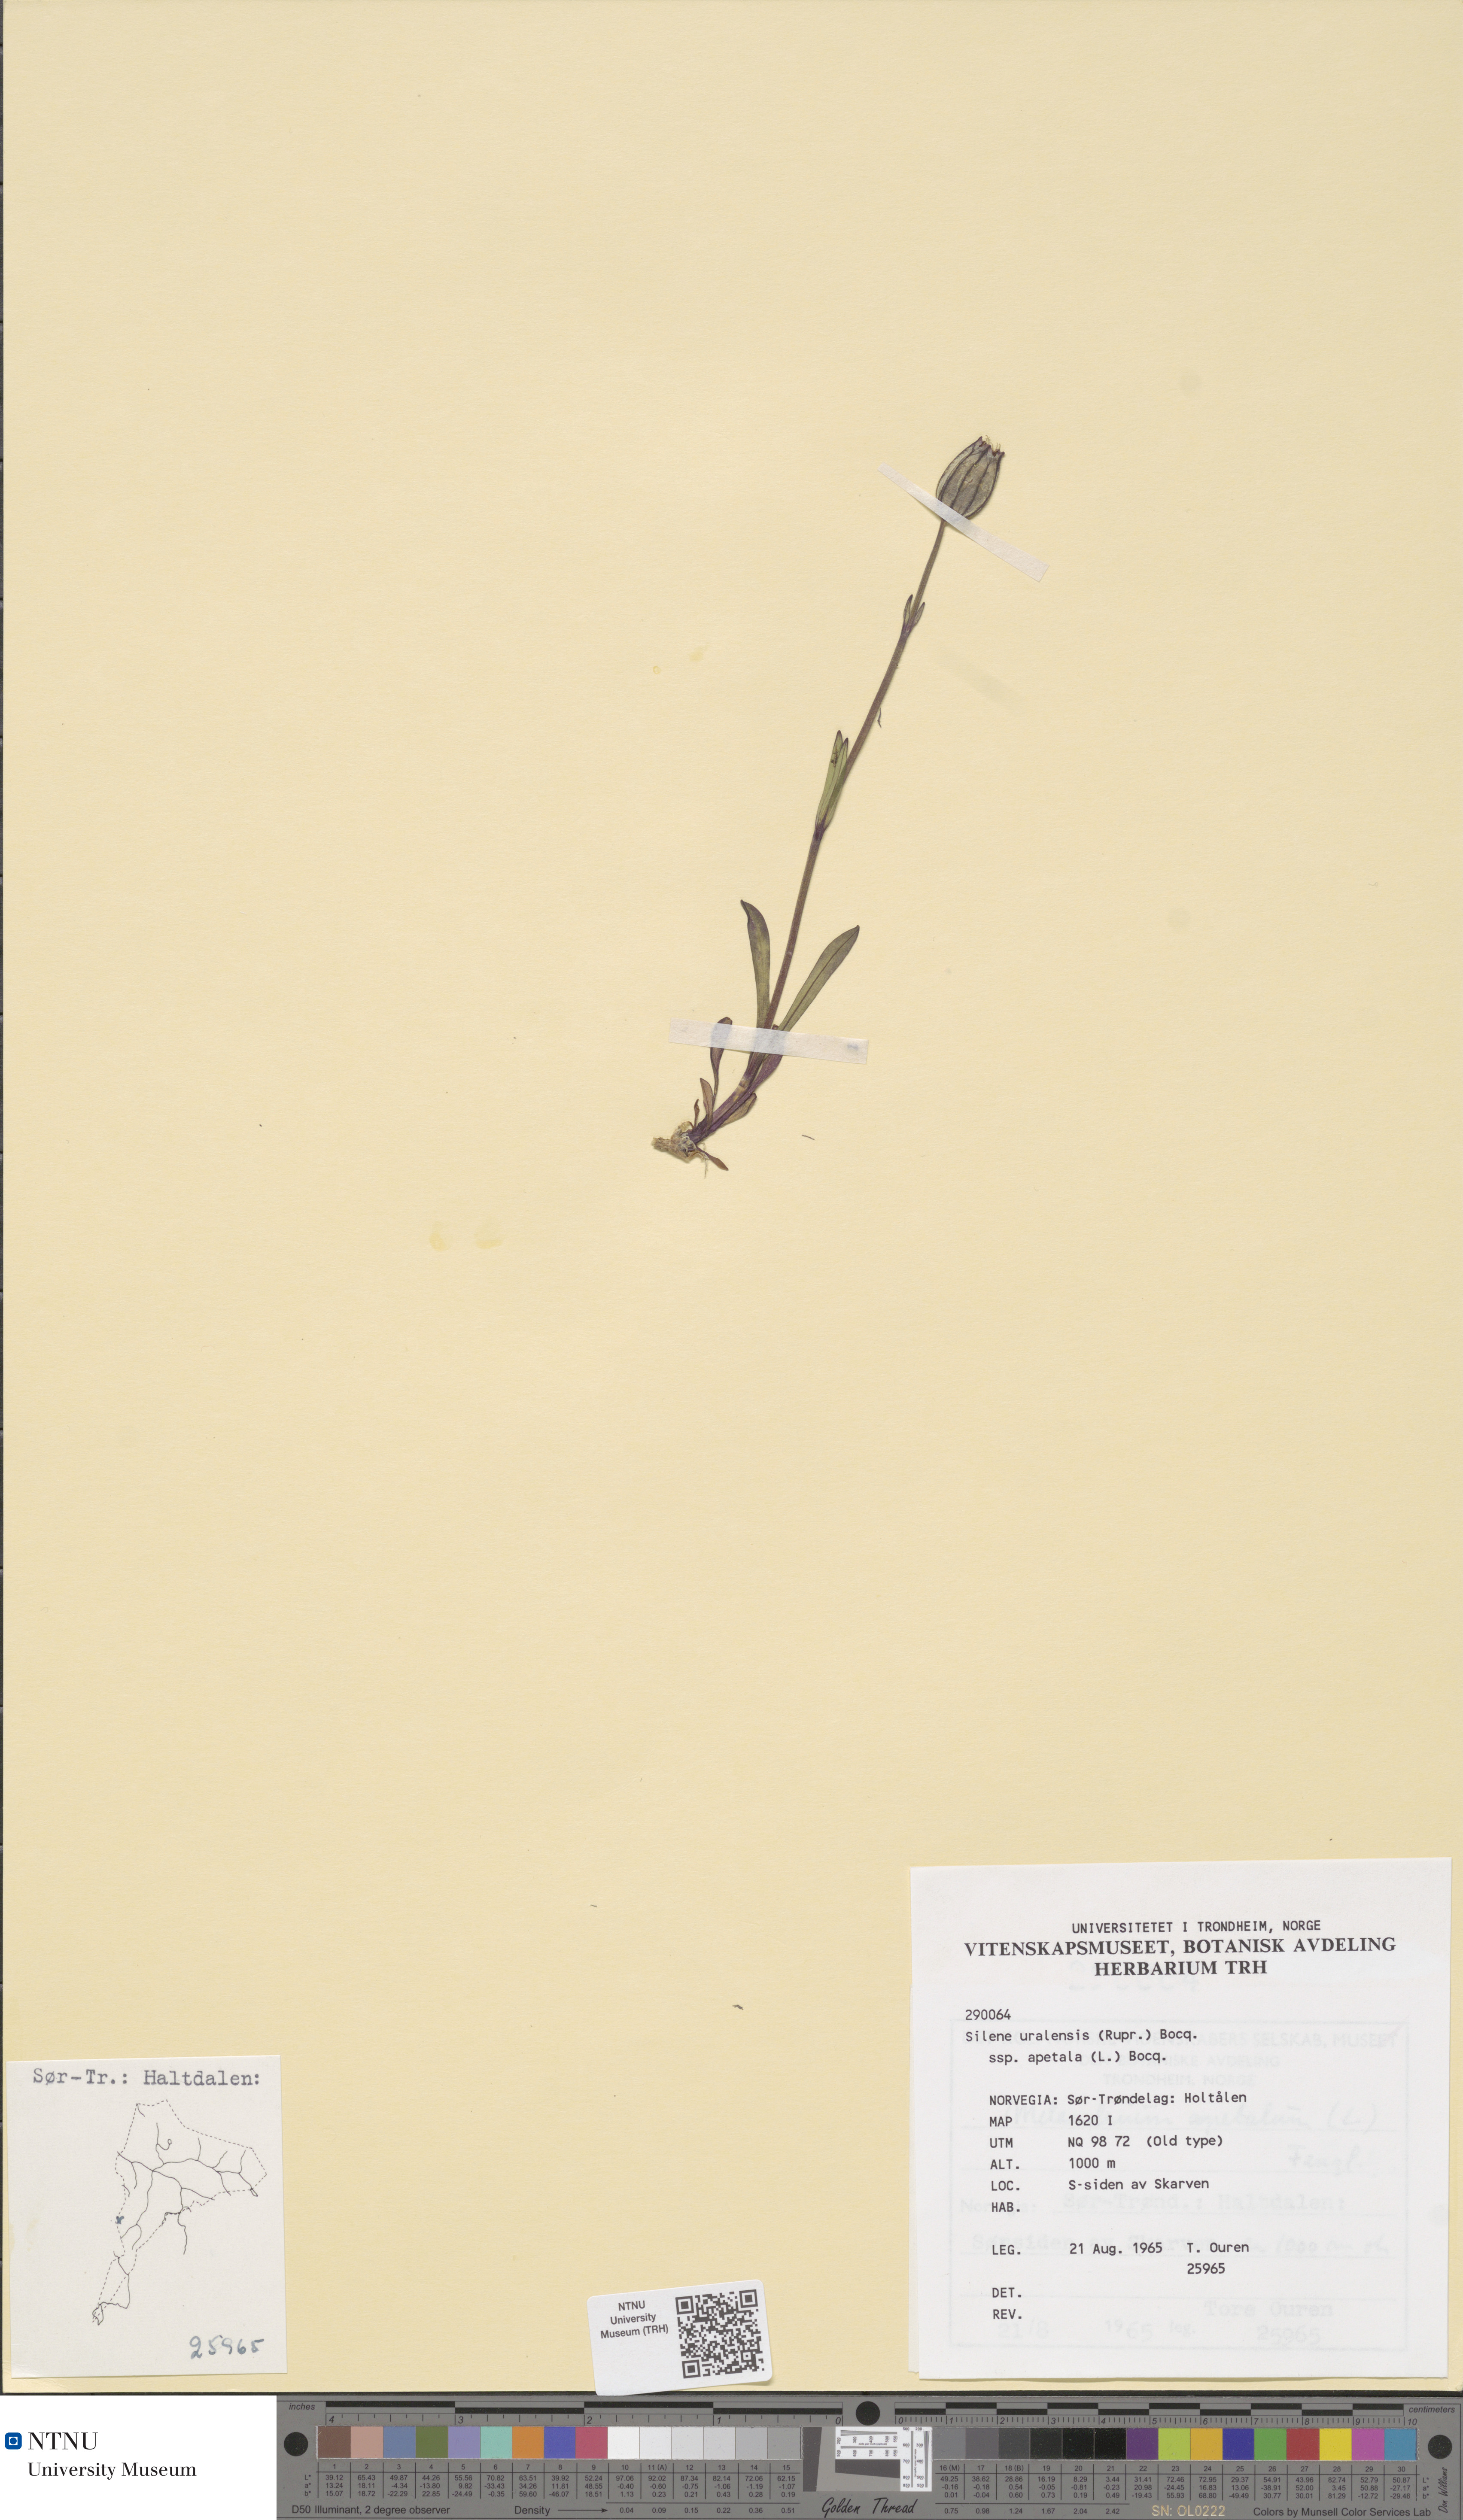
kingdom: Plantae
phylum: Tracheophyta
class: Magnoliopsida
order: Caryophyllales
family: Caryophyllaceae
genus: Silene
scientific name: Silene wahlbergella
